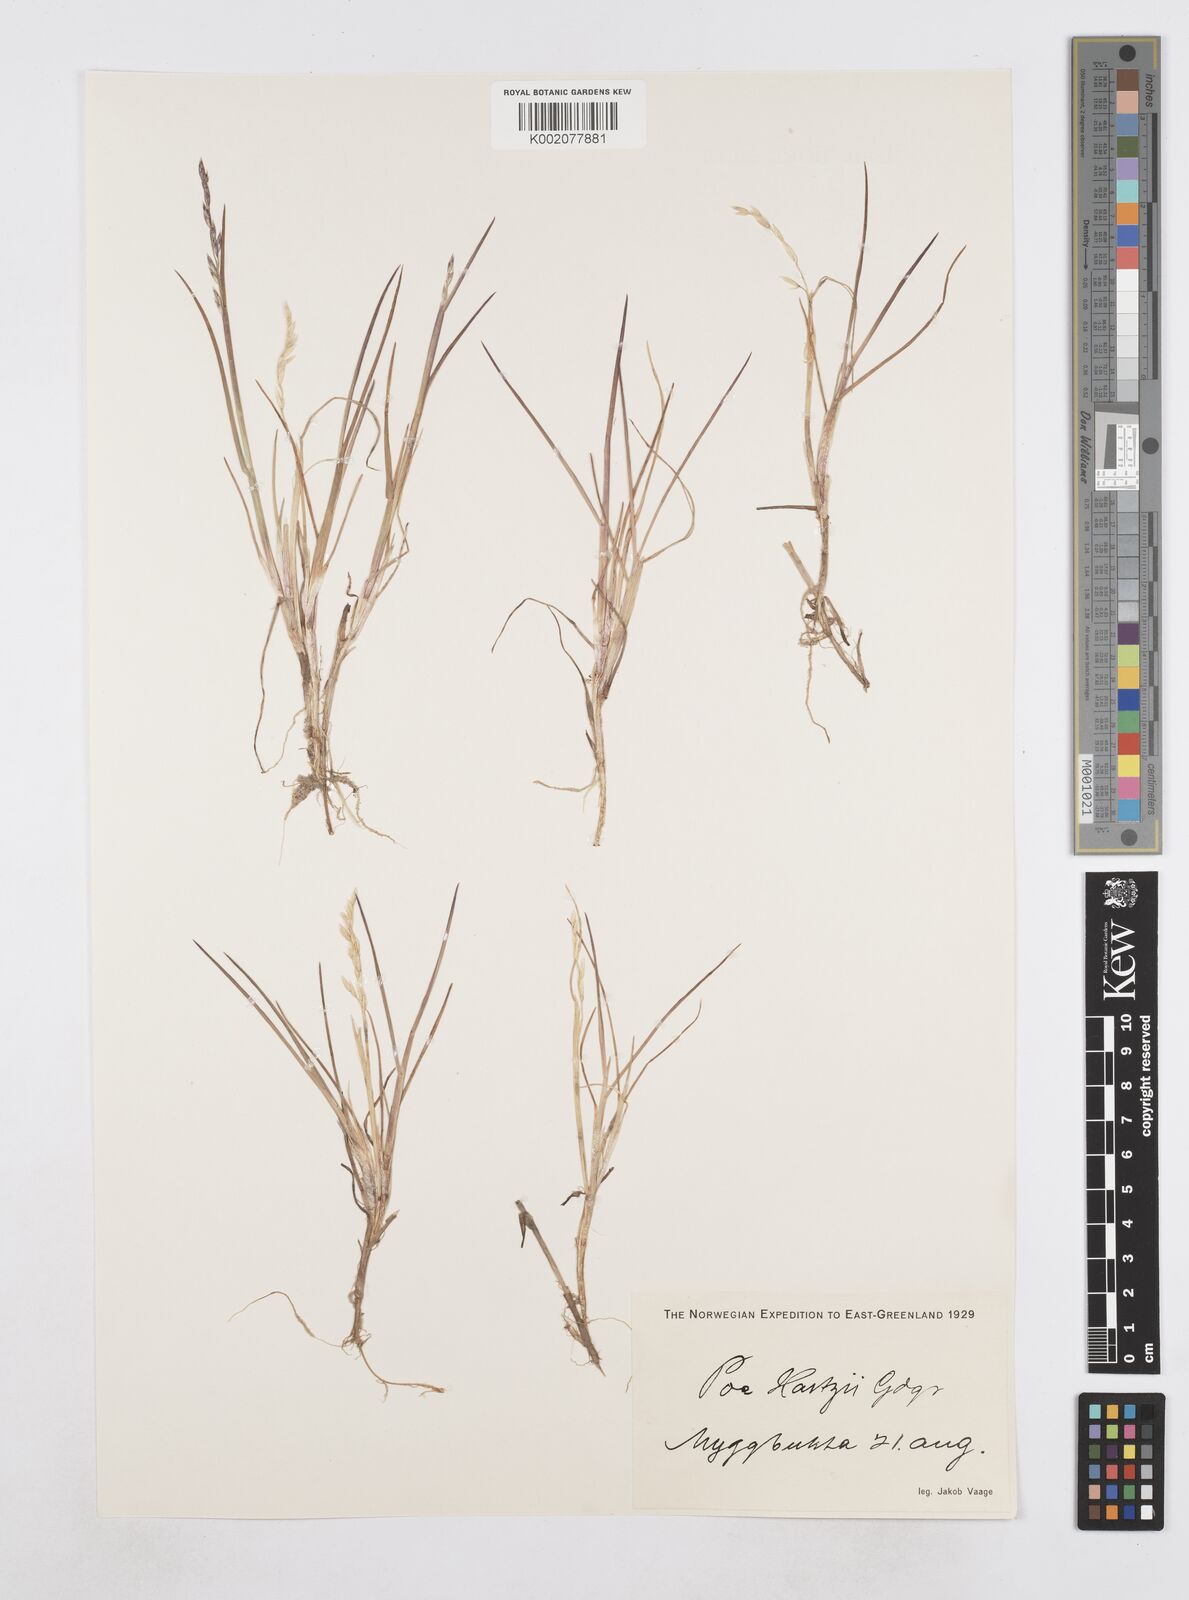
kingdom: Plantae
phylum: Tracheophyta
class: Liliopsida
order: Poales
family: Poaceae
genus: Poa
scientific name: Poa hartzii
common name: Hartz's bluegrass
